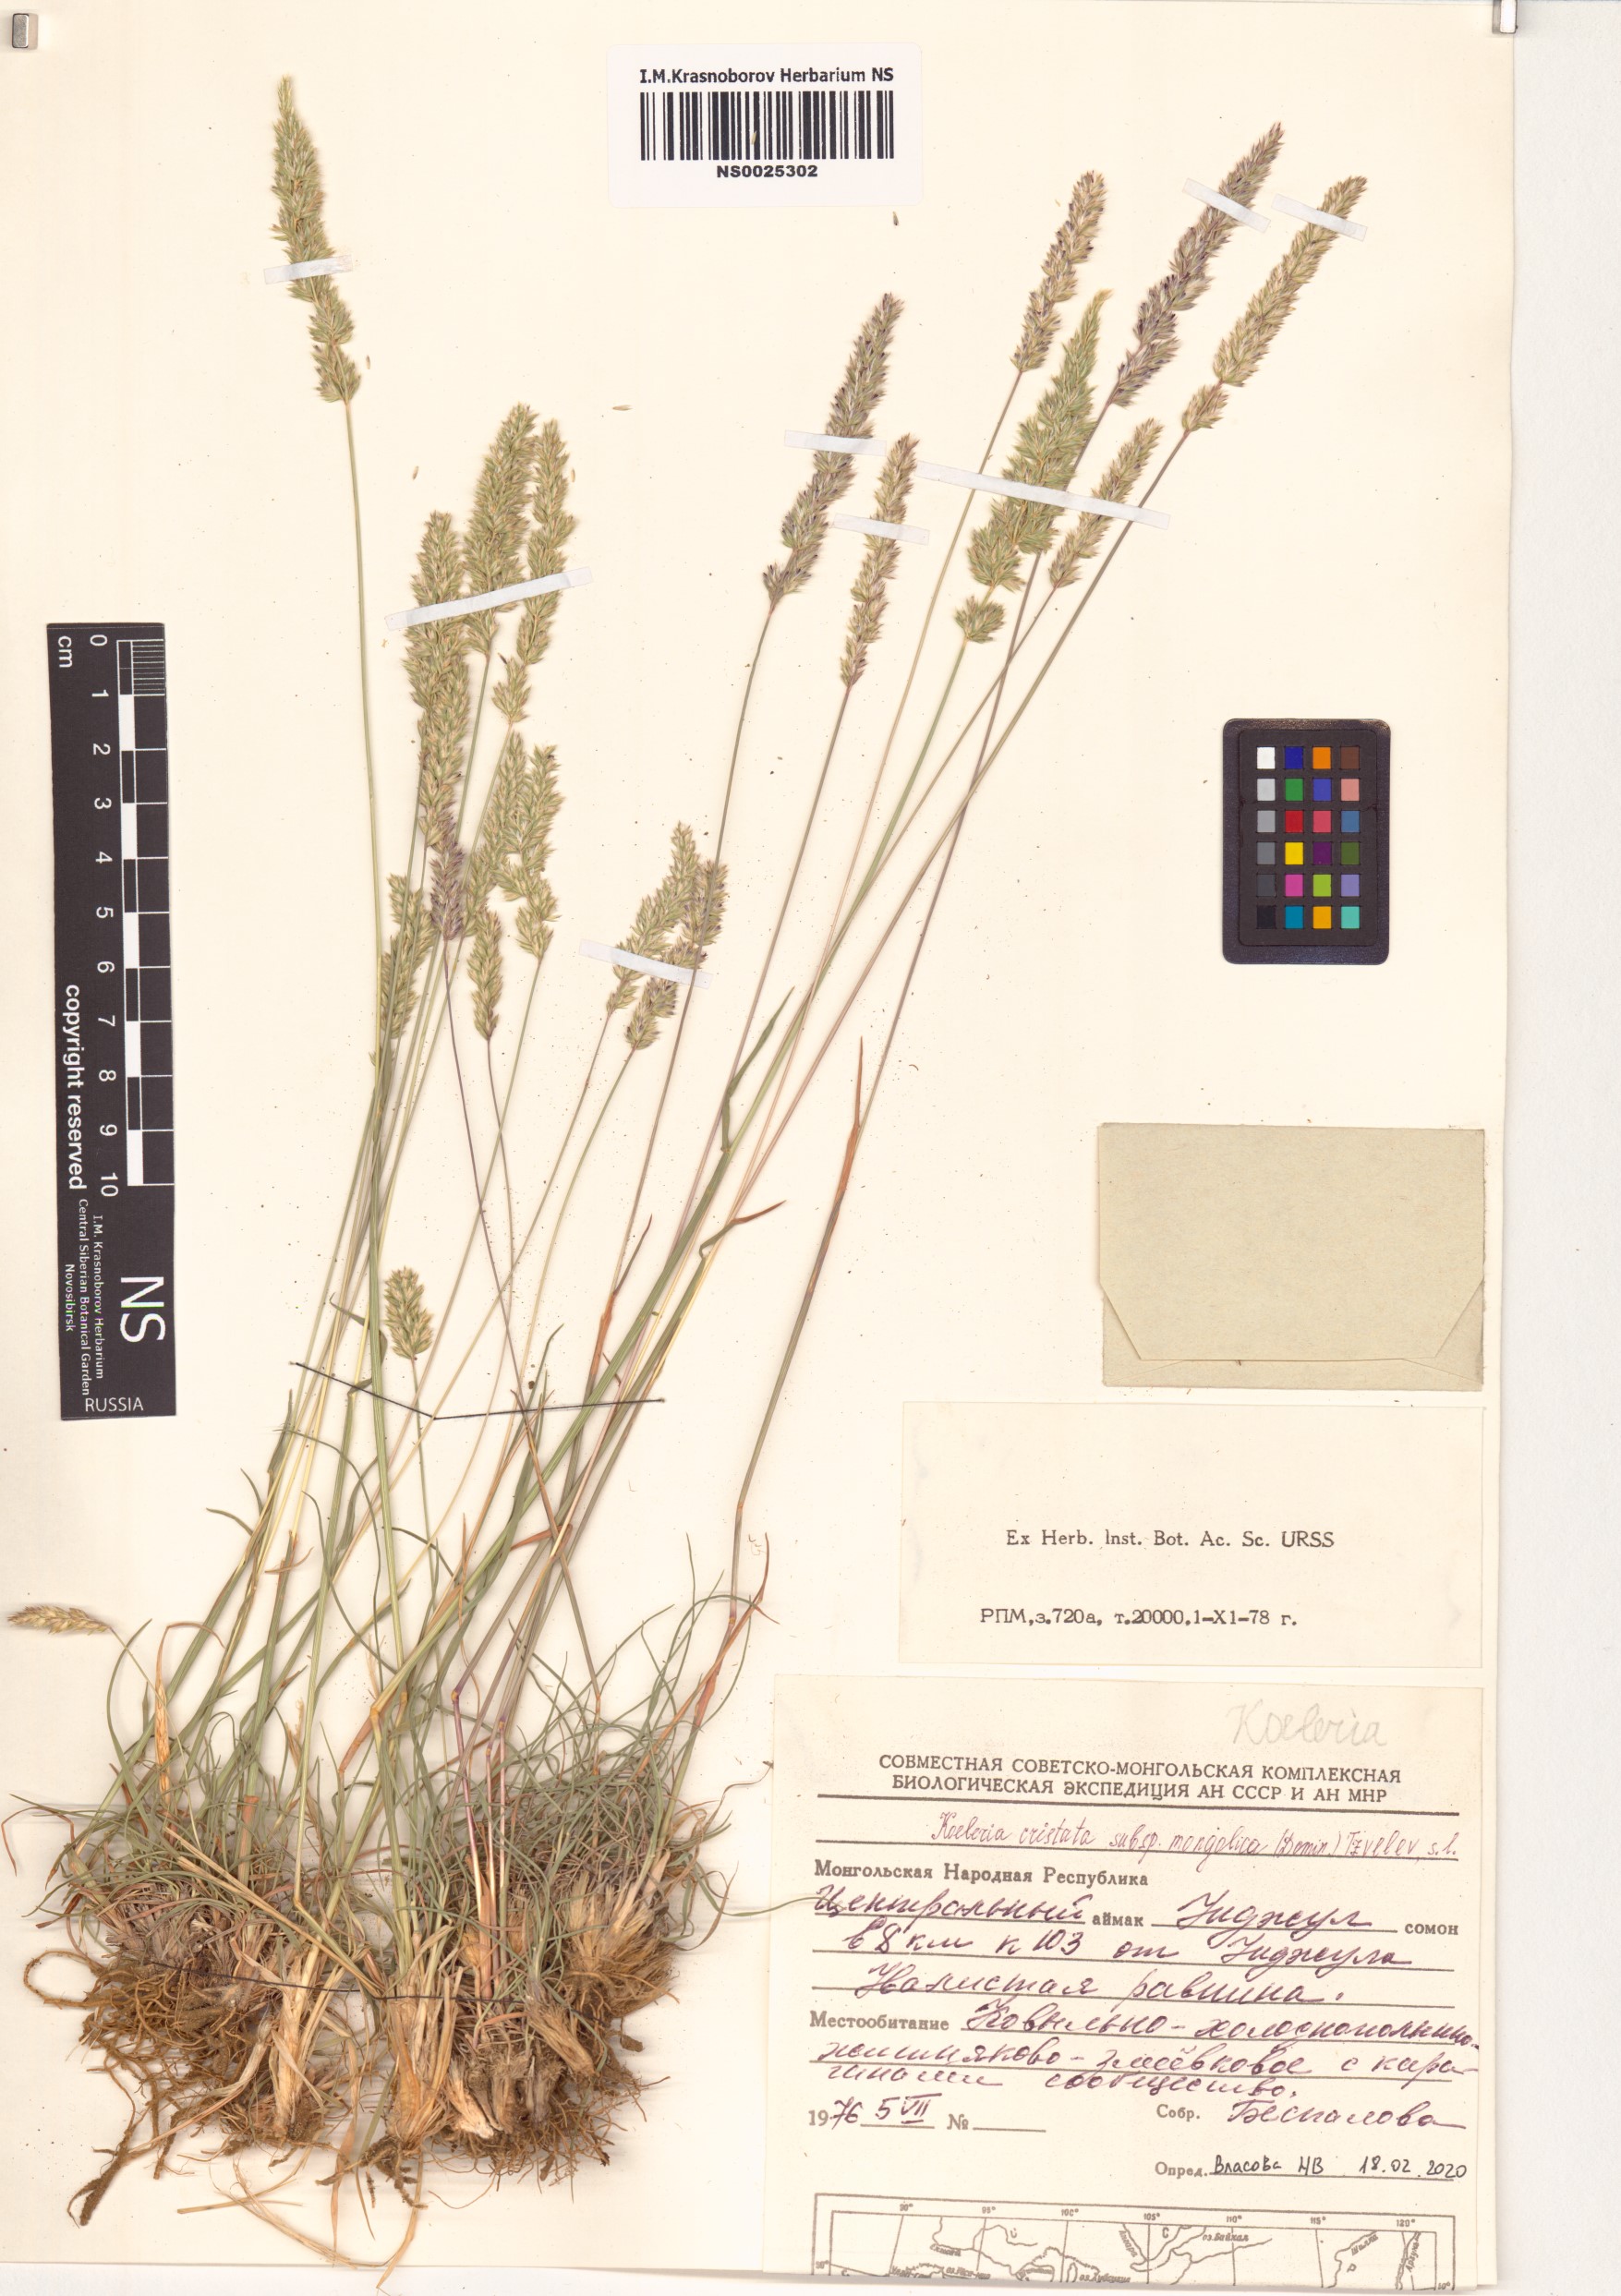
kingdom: Plantae
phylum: Tracheophyta
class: Liliopsida
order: Poales
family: Poaceae
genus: Koeleria
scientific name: Koeleria macrantha
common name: Crested hair-grass
